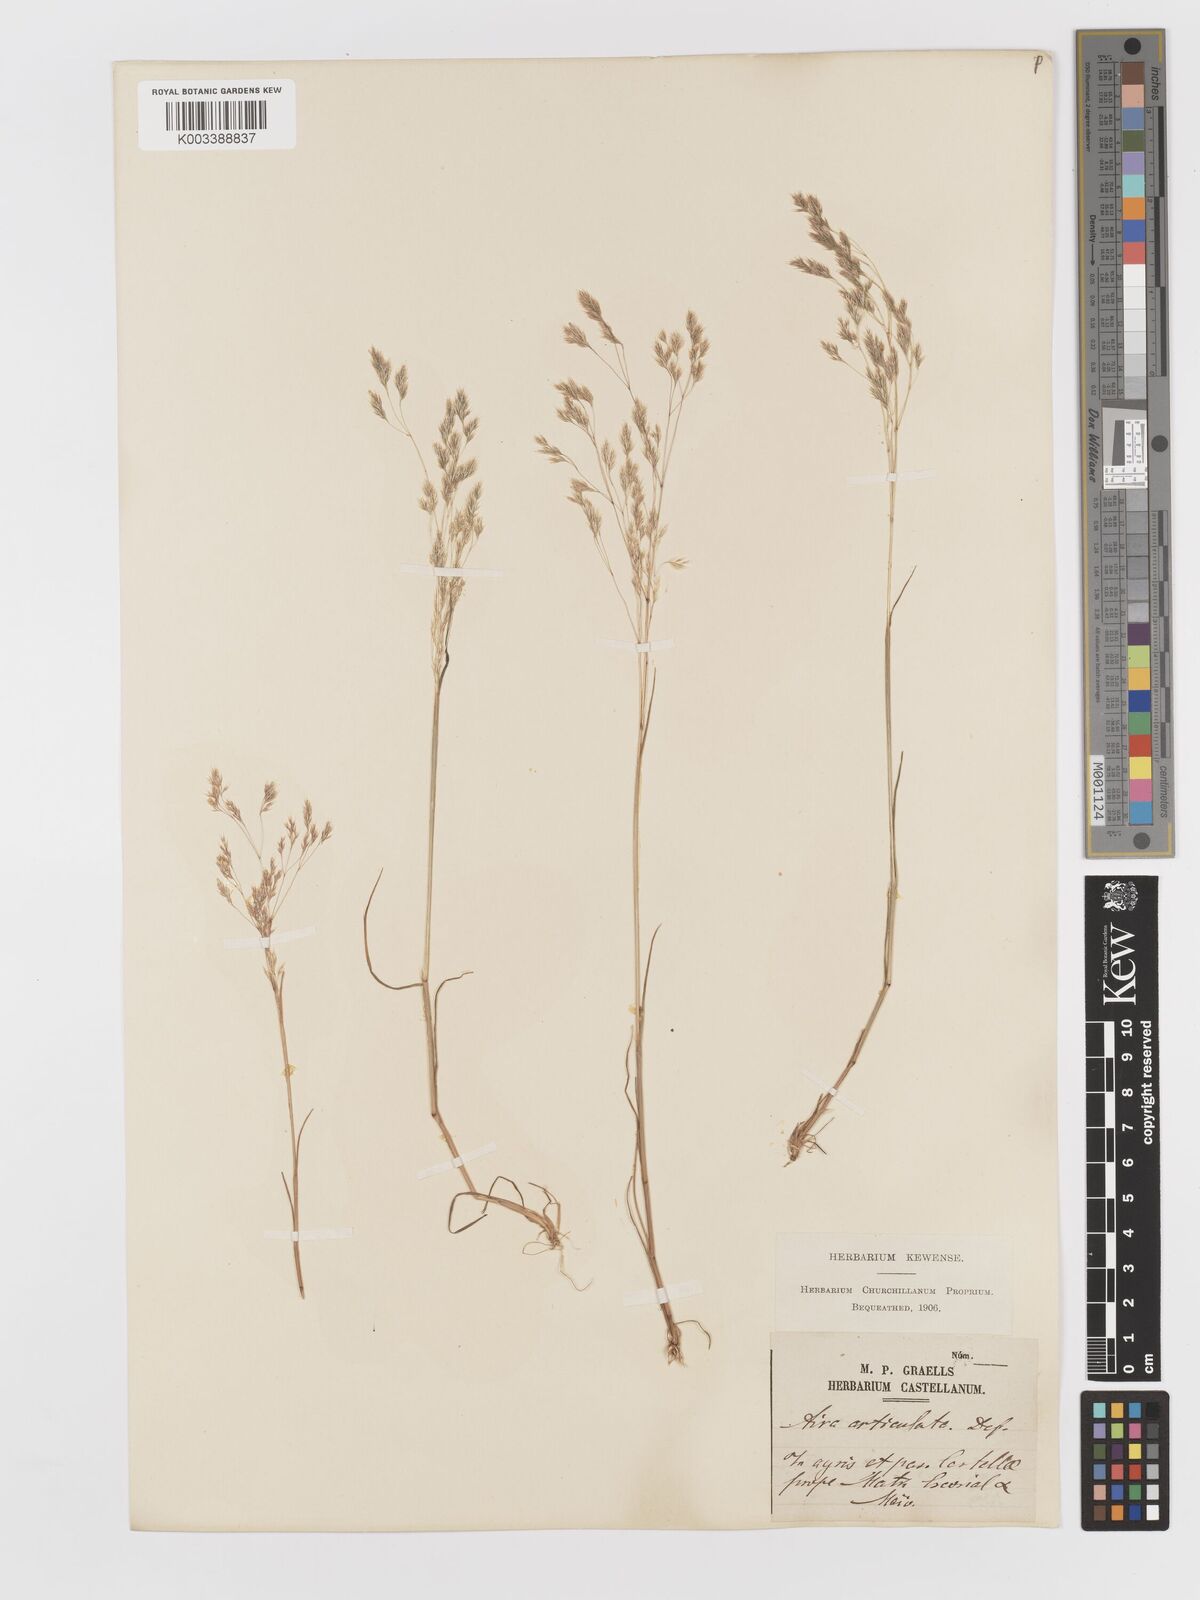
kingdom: Plantae
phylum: Tracheophyta
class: Liliopsida
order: Poales
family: Poaceae
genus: Corynephorus
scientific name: Corynephorus divaricatus
